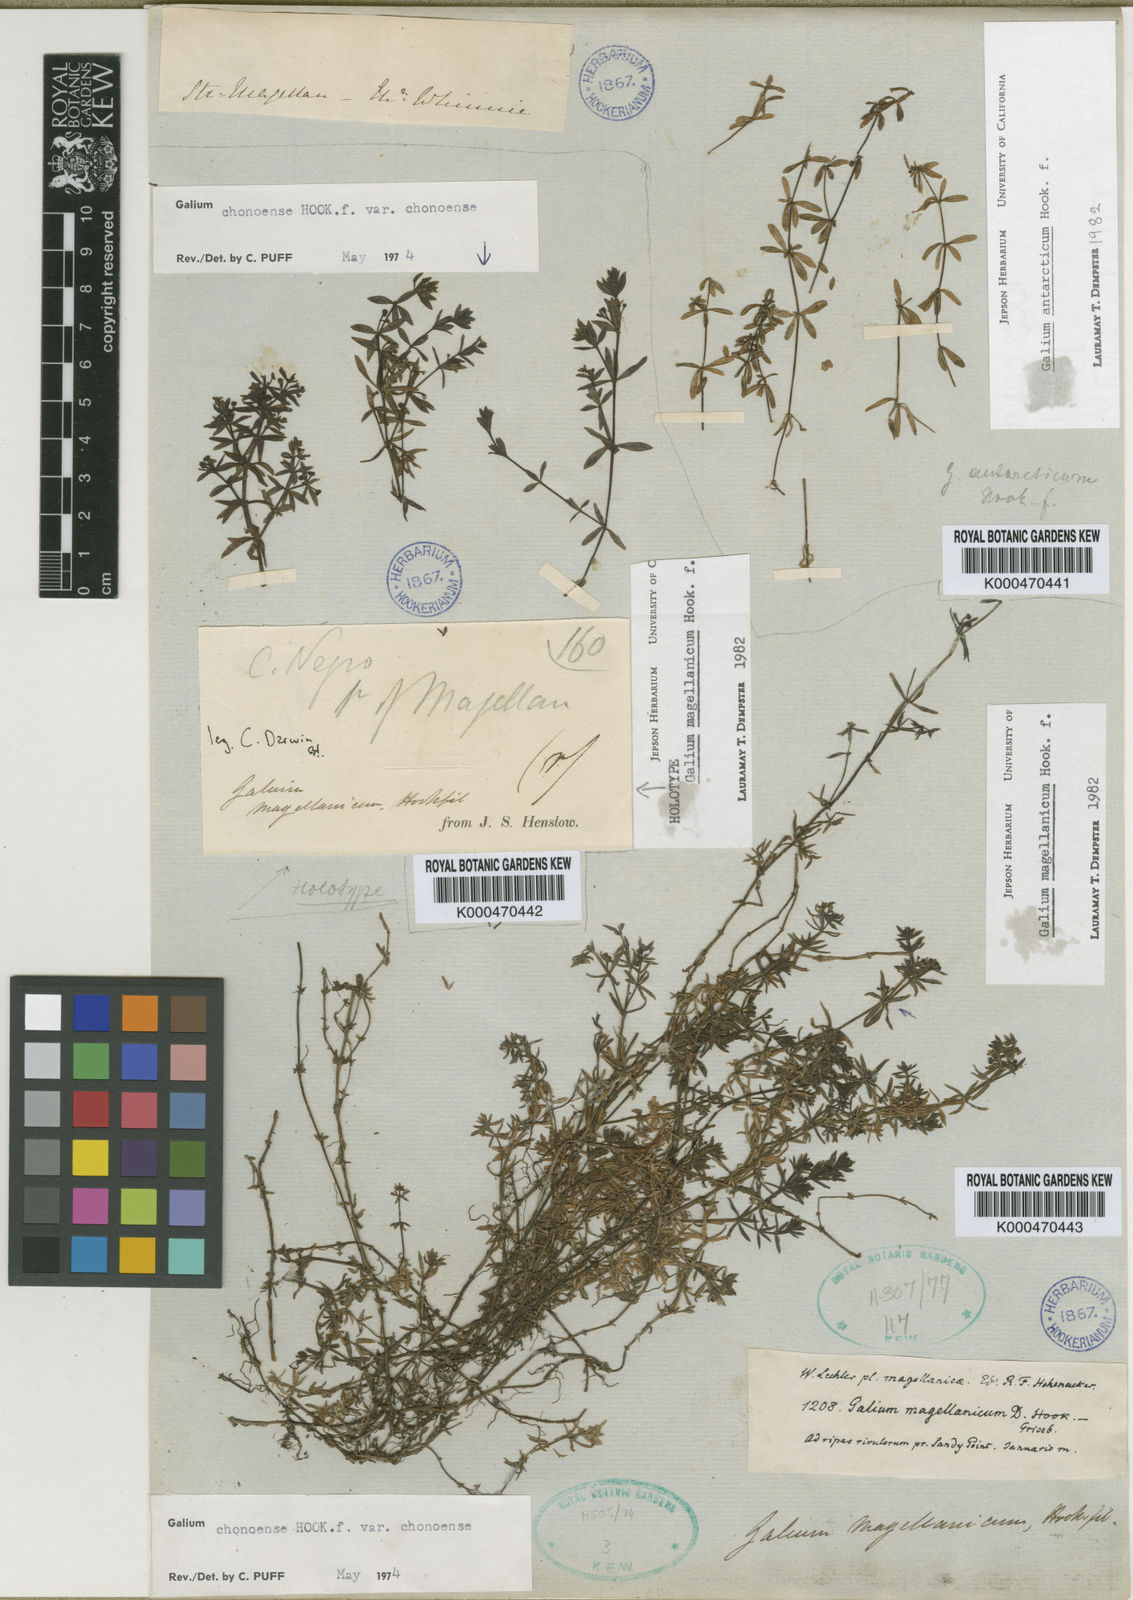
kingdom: Plantae
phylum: Tracheophyta
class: Magnoliopsida
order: Gentianales
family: Rubiaceae
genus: Galium
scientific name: Galium magellanicum
